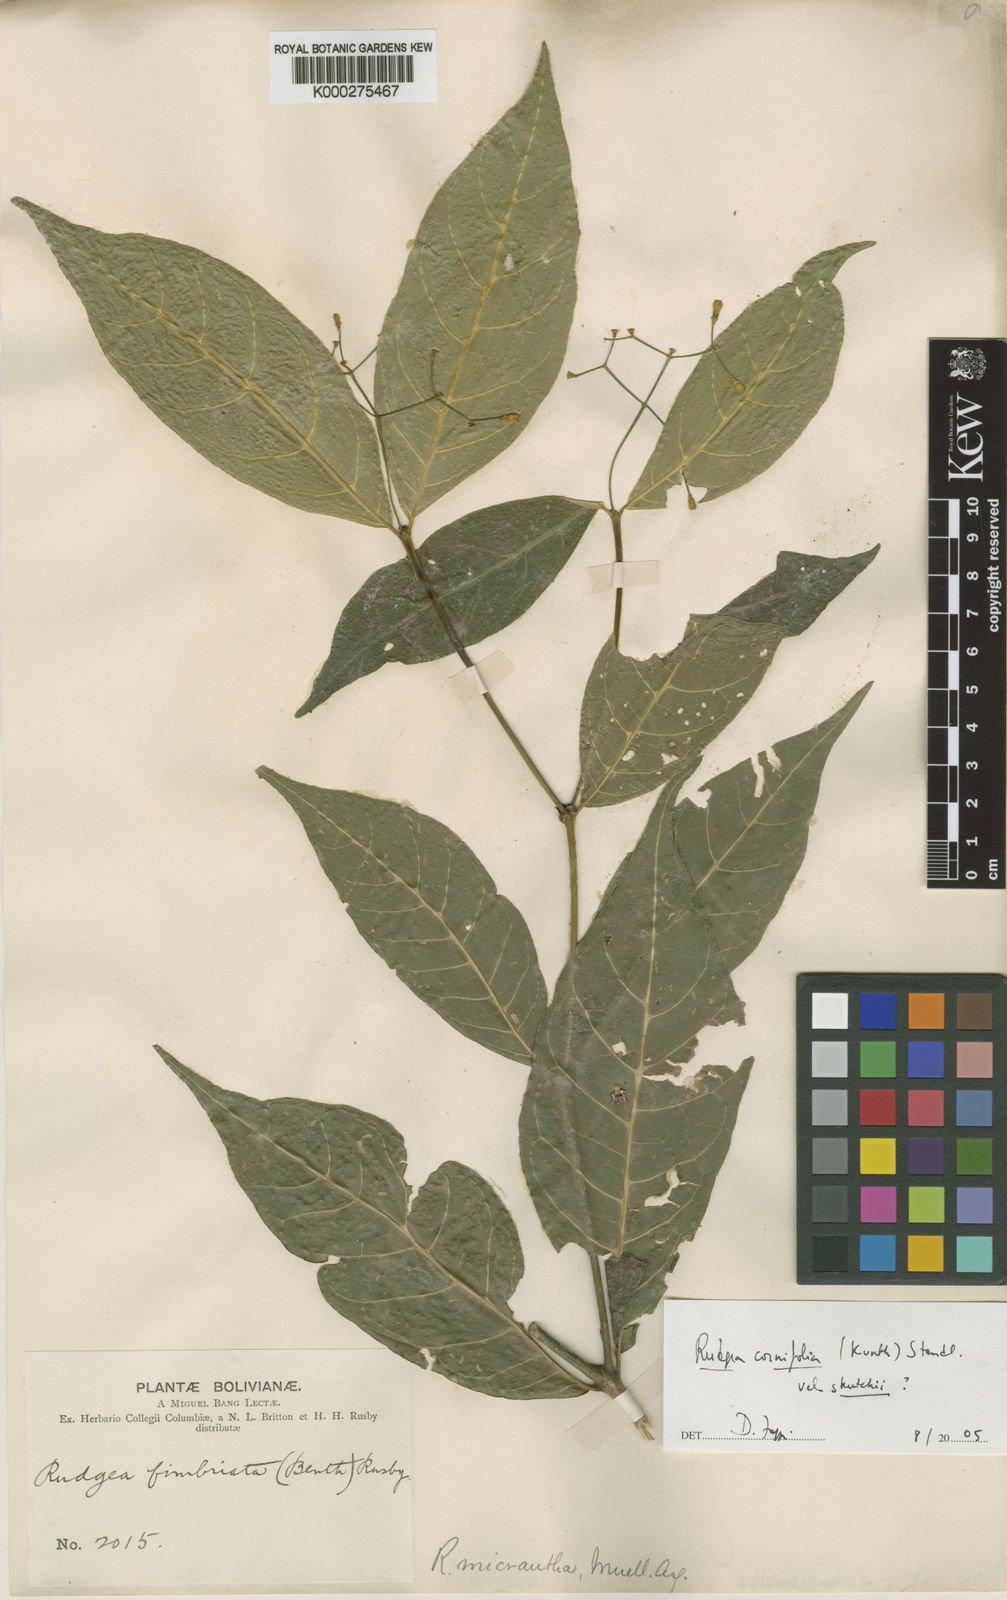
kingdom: Plantae
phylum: Tracheophyta
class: Magnoliopsida
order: Gentianales
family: Rubiaceae
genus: Rudgea
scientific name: Rudgea cornifolia
